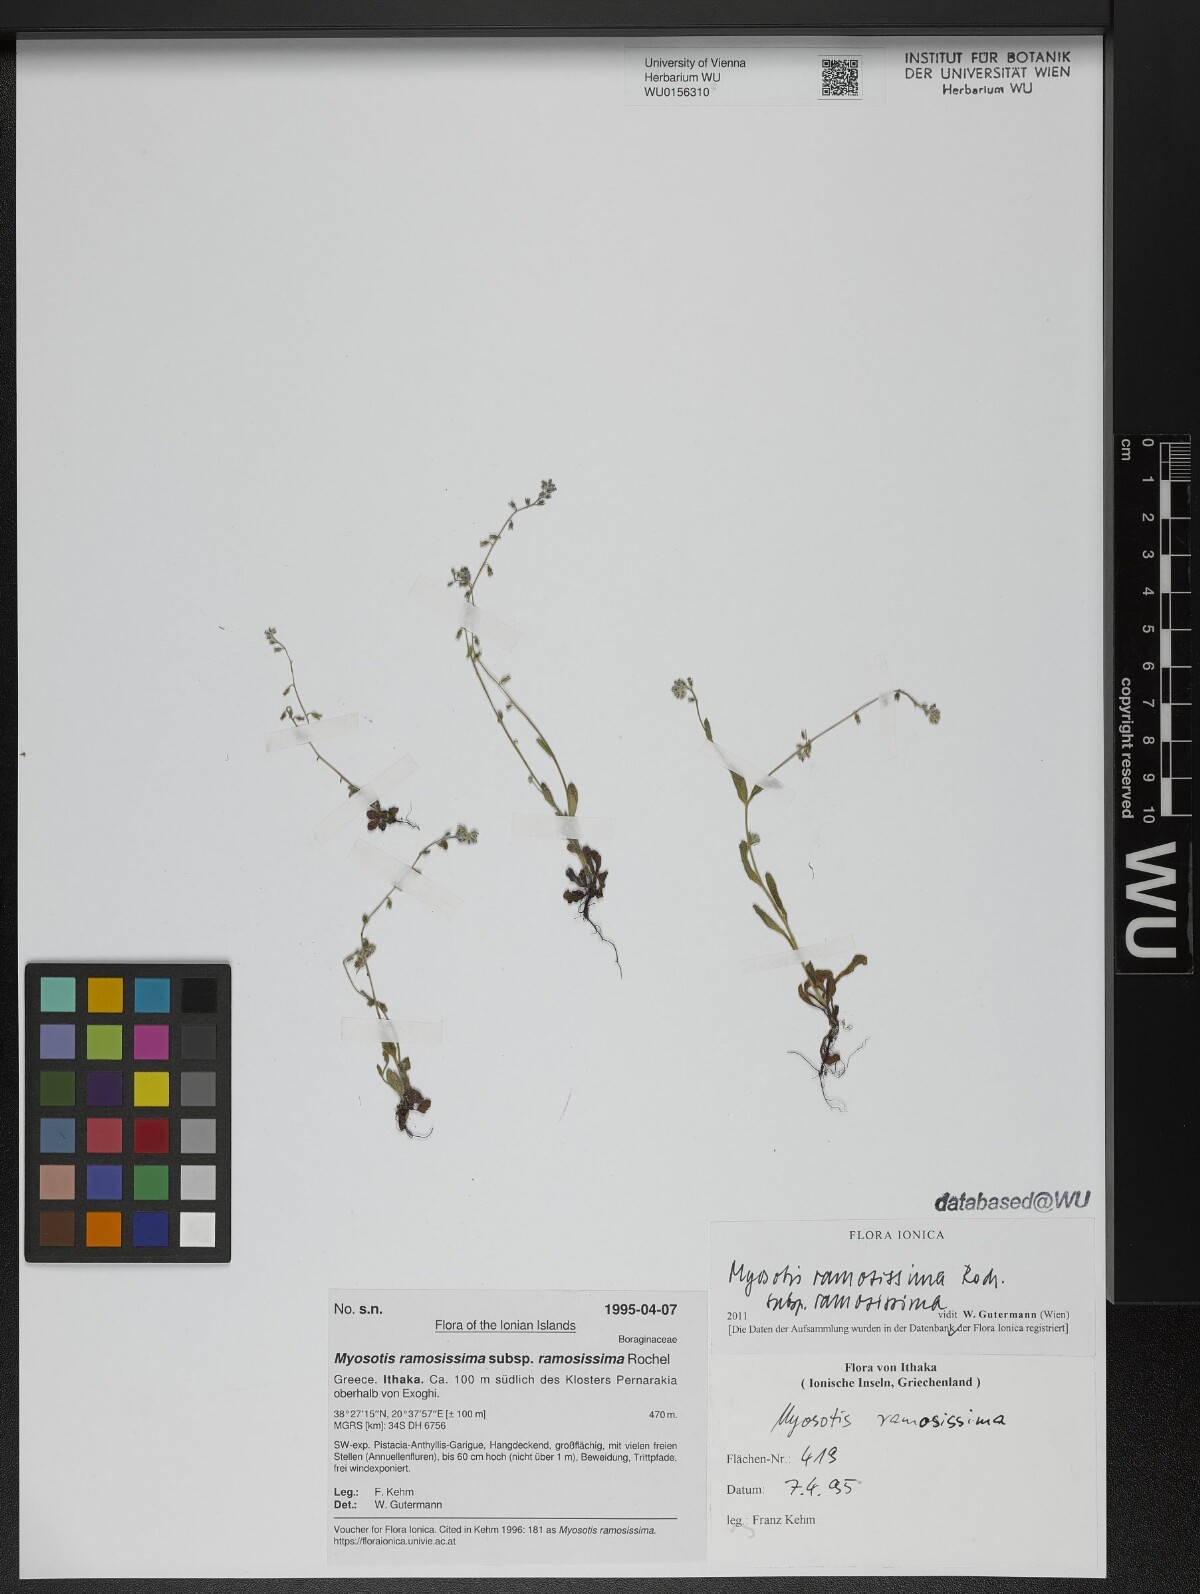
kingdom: Plantae
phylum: Tracheophyta
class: Magnoliopsida
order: Boraginales
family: Boraginaceae
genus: Myosotis
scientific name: Myosotis ramosissima
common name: Early forget-me-not
